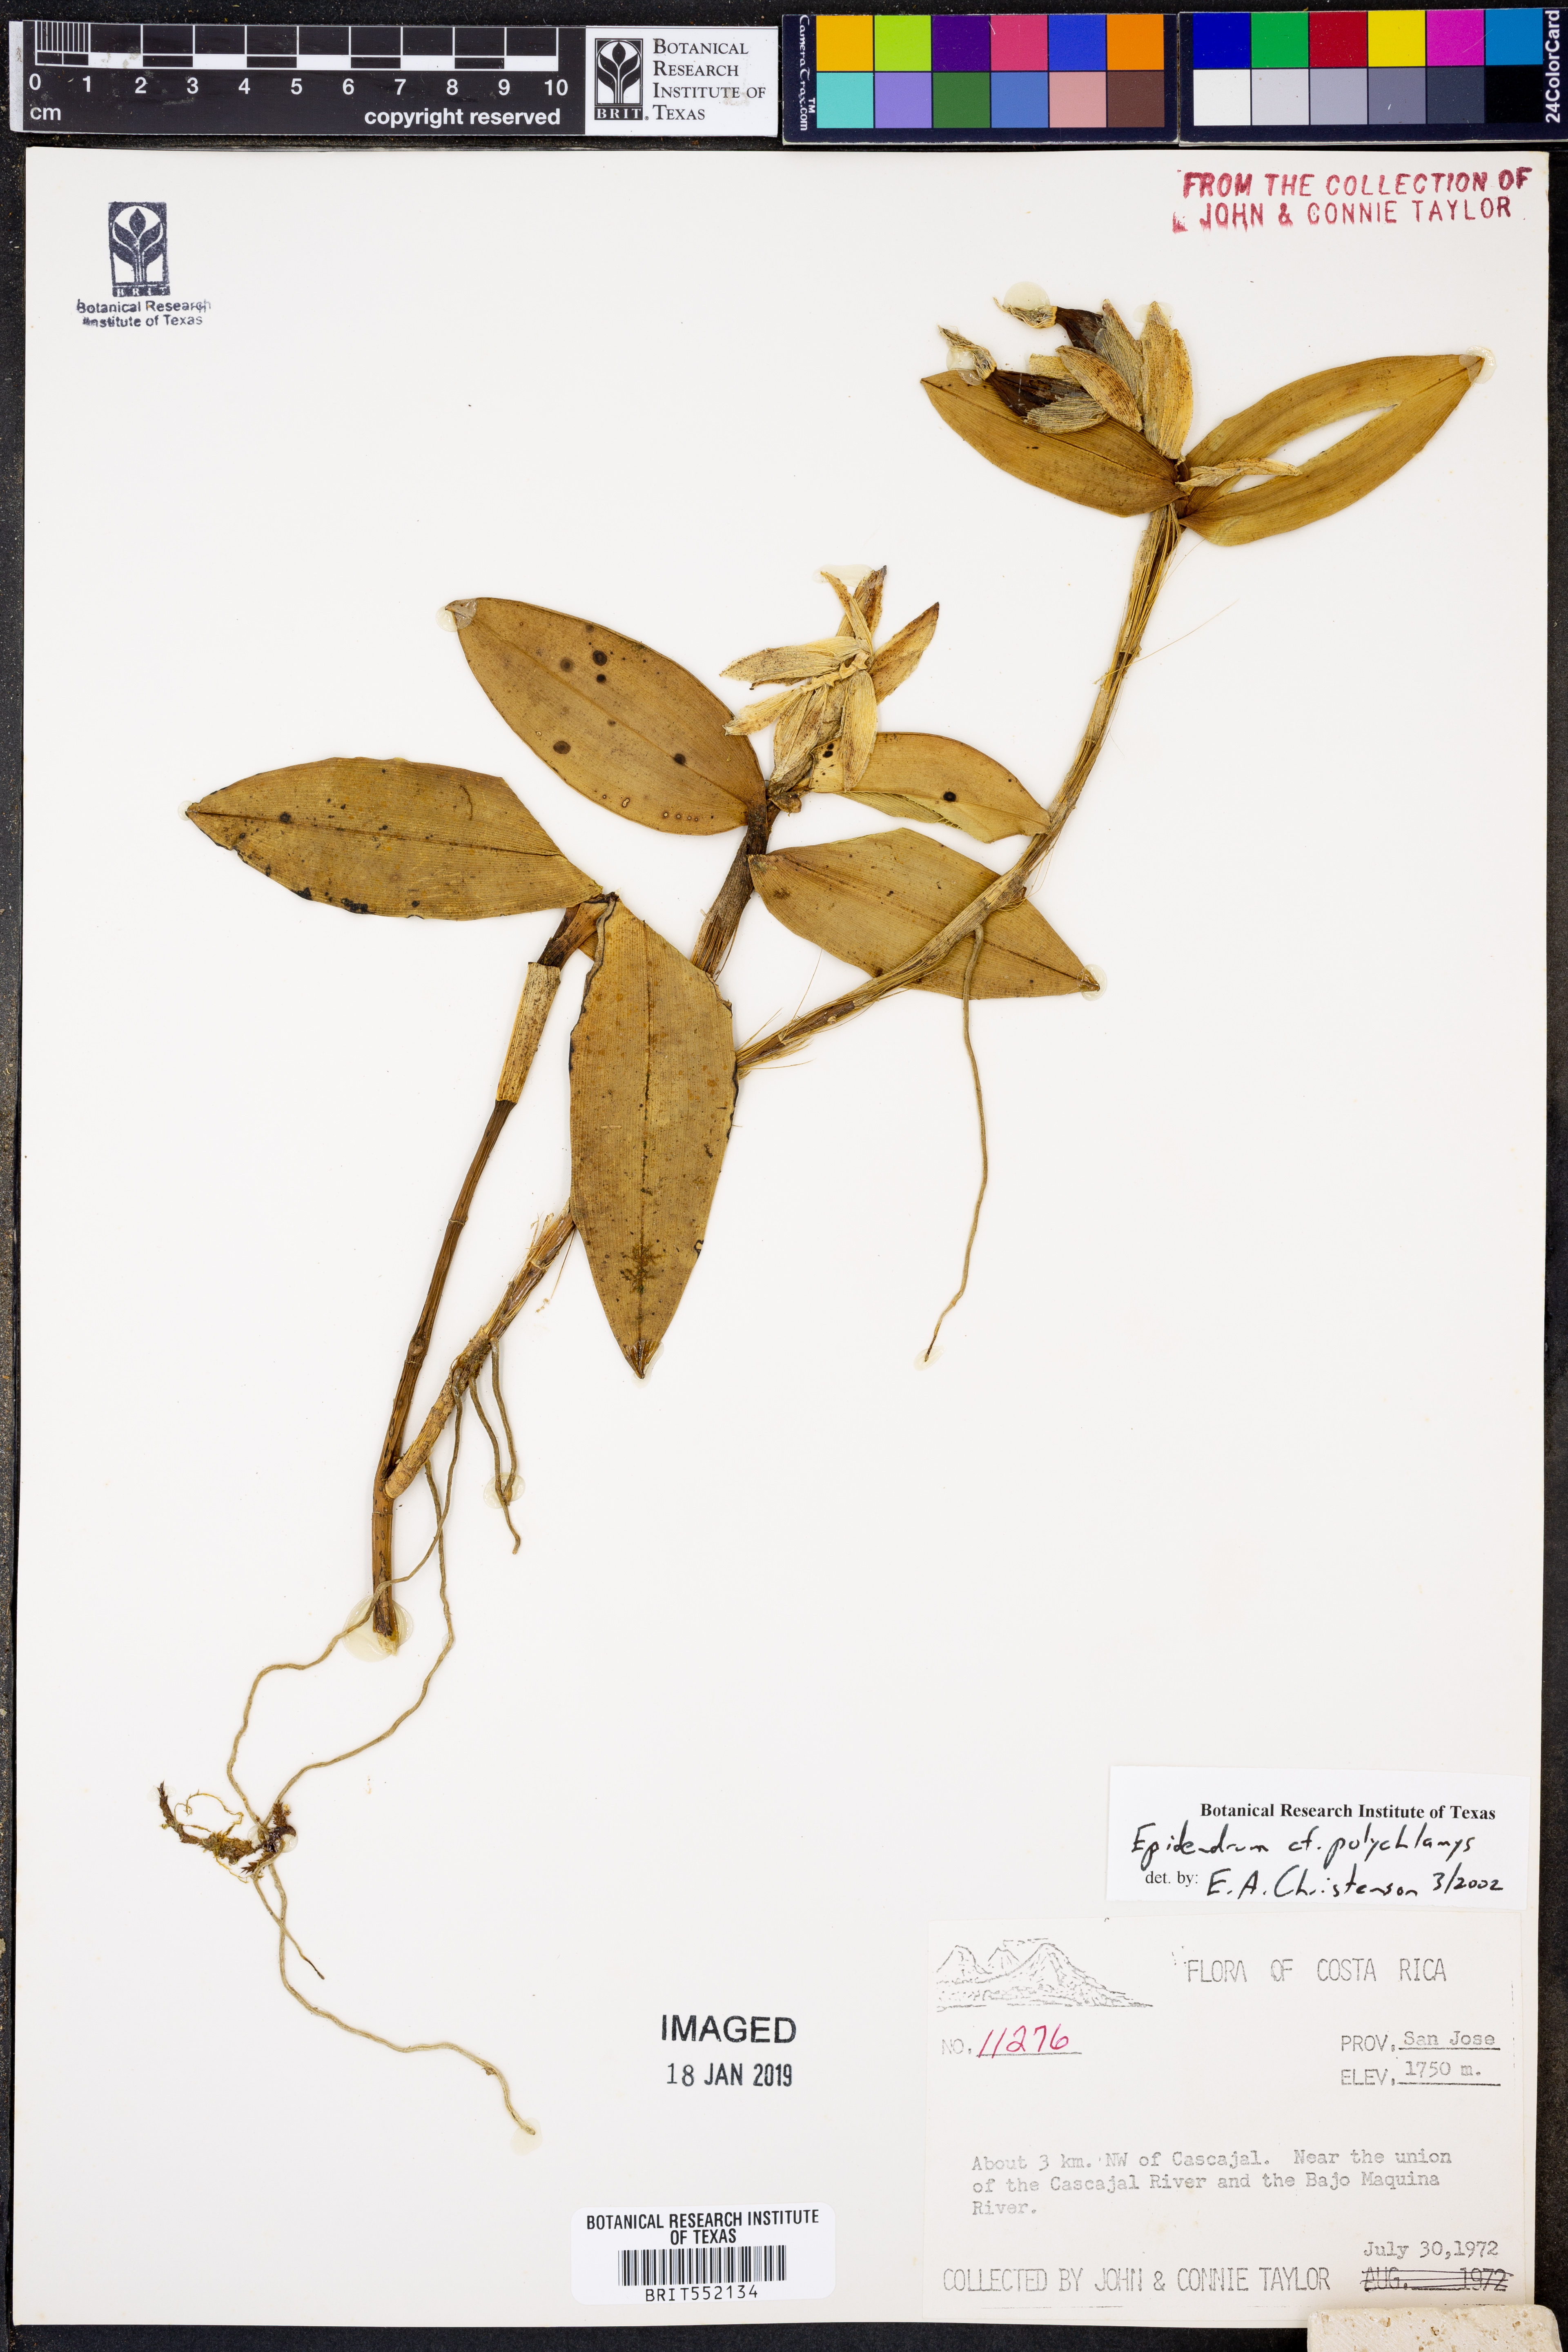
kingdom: Plantae
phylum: Tracheophyta
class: Liliopsida
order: Asparagales
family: Orchidaceae
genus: Epidendrum
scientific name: Epidendrum polychlamys
